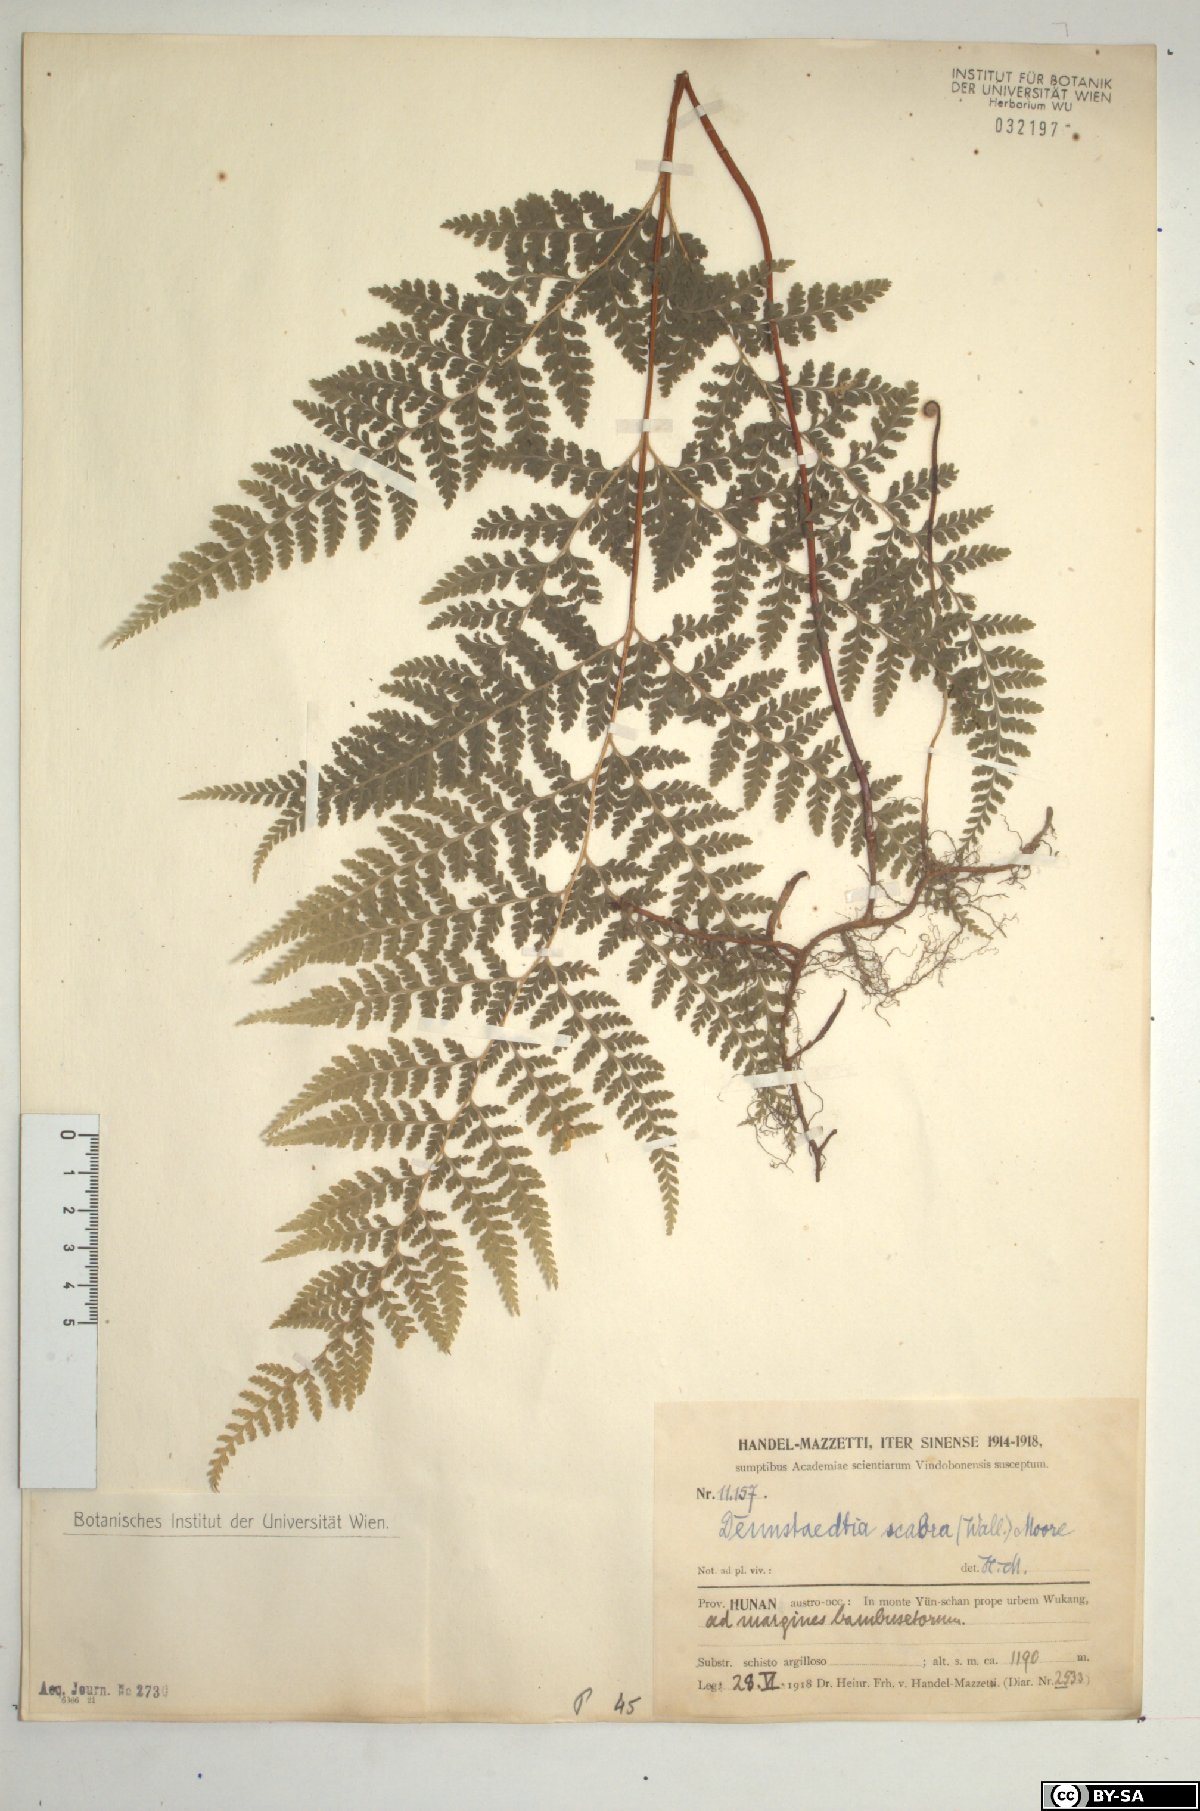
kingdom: Plantae
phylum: Tracheophyta
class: Polypodiopsida
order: Polypodiales
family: Dennstaedtiaceae
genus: Sitobolium
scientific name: Sitobolium zeylanicum
